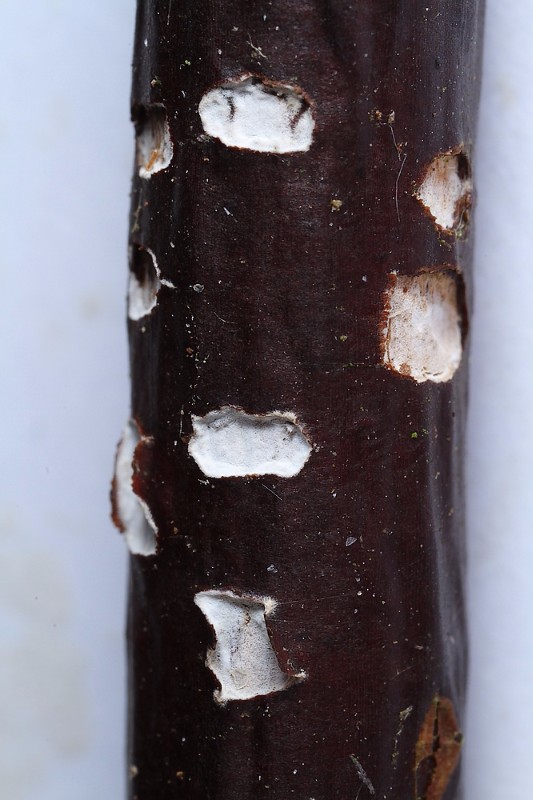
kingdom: Fungi
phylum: Basidiomycota
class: Tremellomycetes
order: Tremellales
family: Exidiaceae
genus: Exidiopsis
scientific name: Exidiopsis
